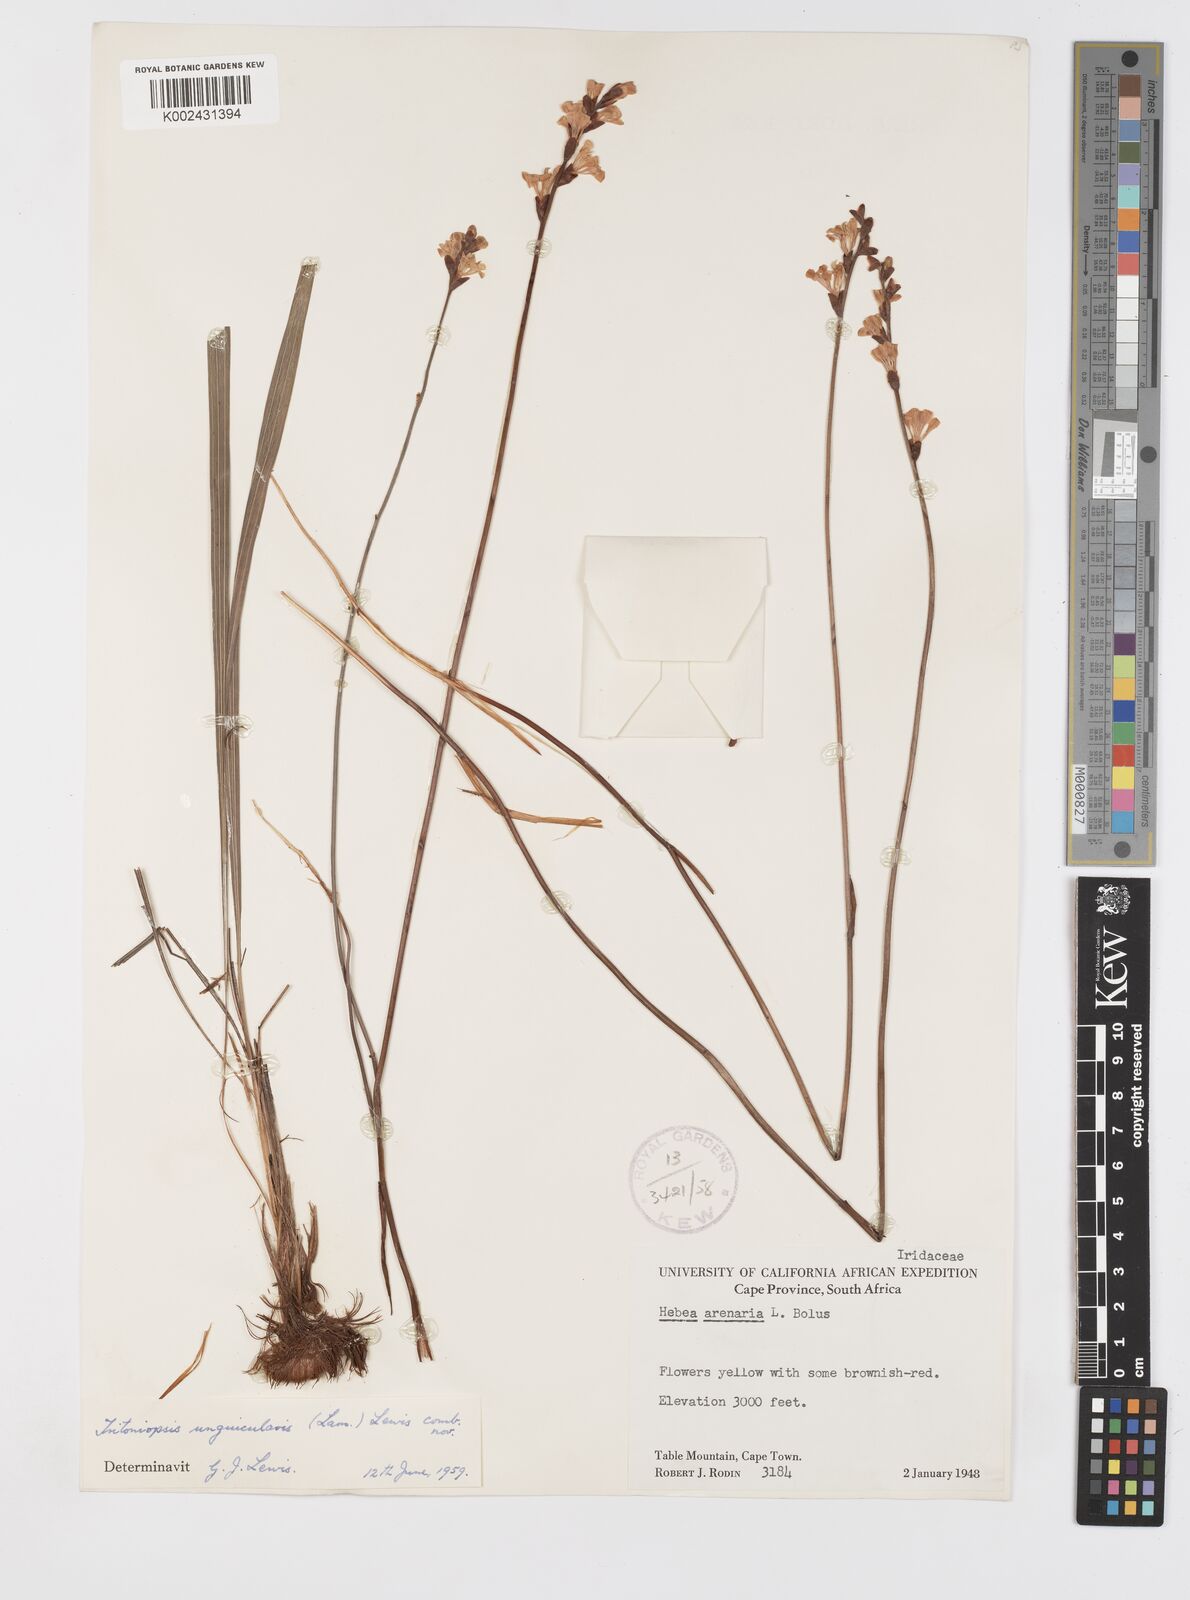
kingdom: Plantae
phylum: Tracheophyta
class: Liliopsida
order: Asparagales
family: Iridaceae
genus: Tritoniopsis
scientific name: Tritoniopsis unguicularis
